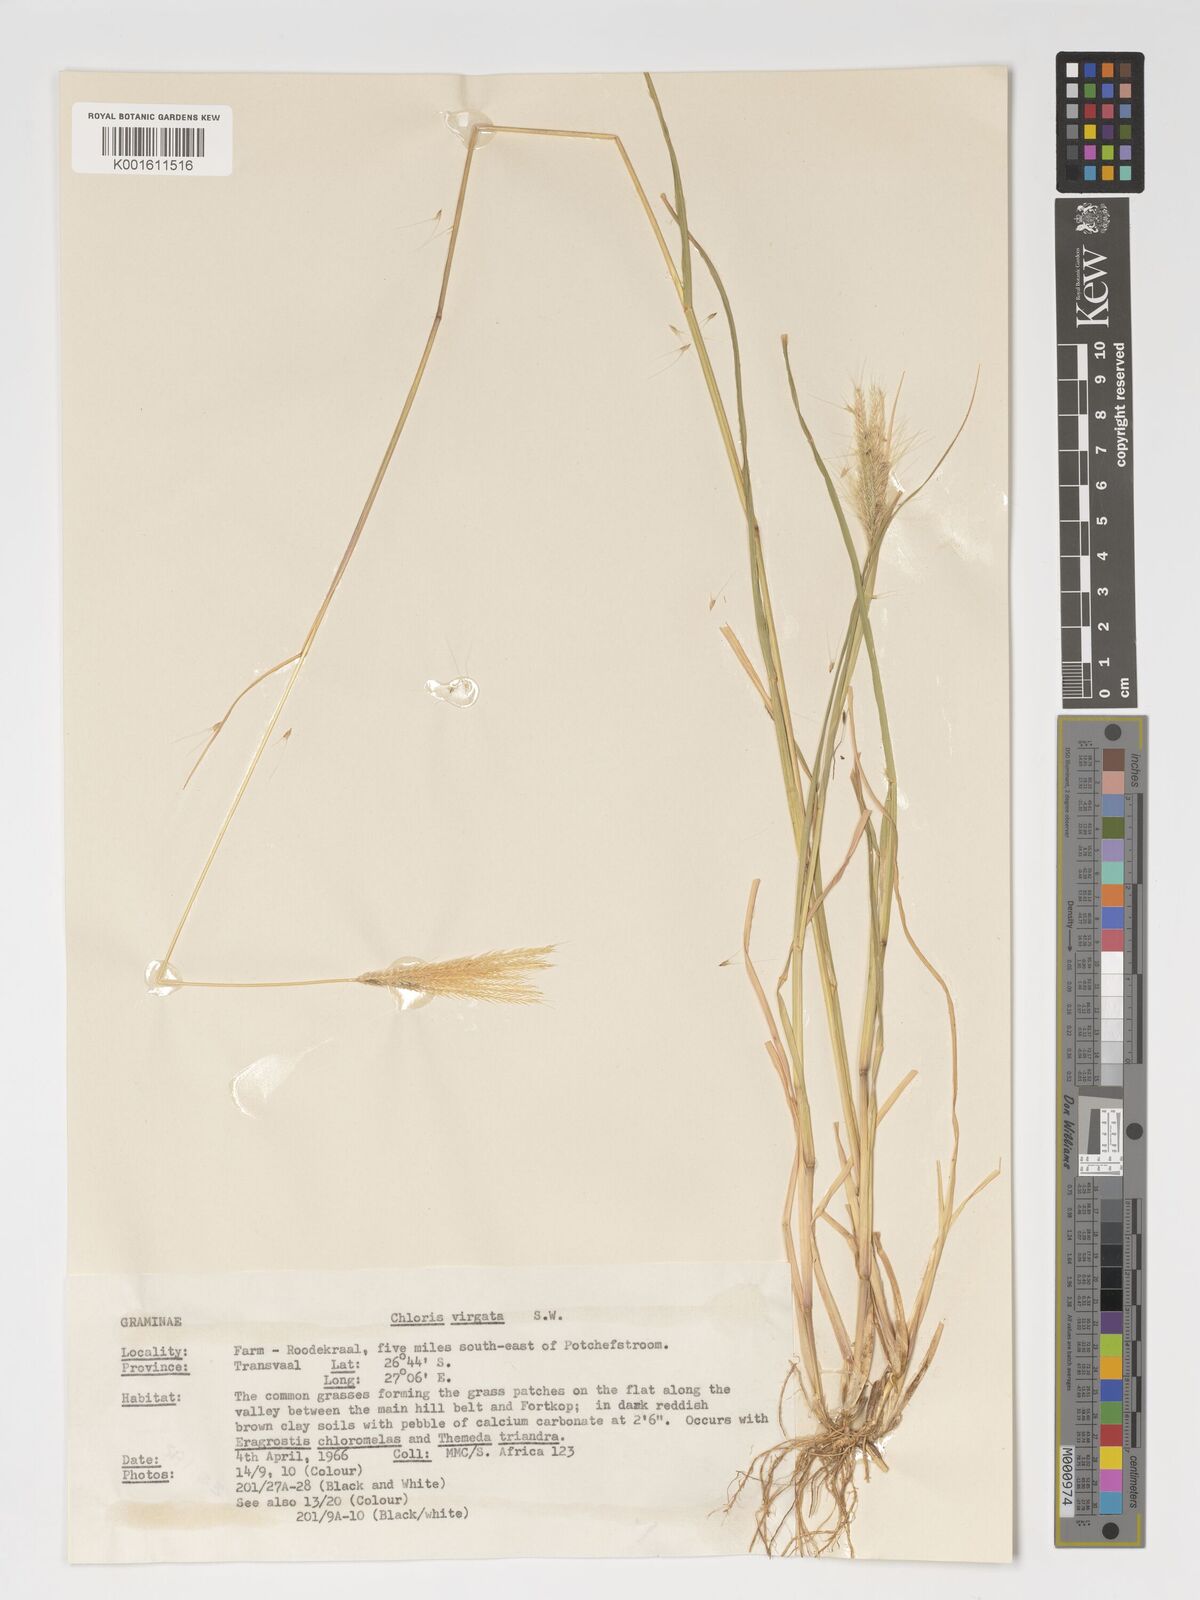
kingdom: Plantae
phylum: Tracheophyta
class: Liliopsida
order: Poales
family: Poaceae
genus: Chloris
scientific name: Chloris virgata
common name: Feathery rhodes-grass
